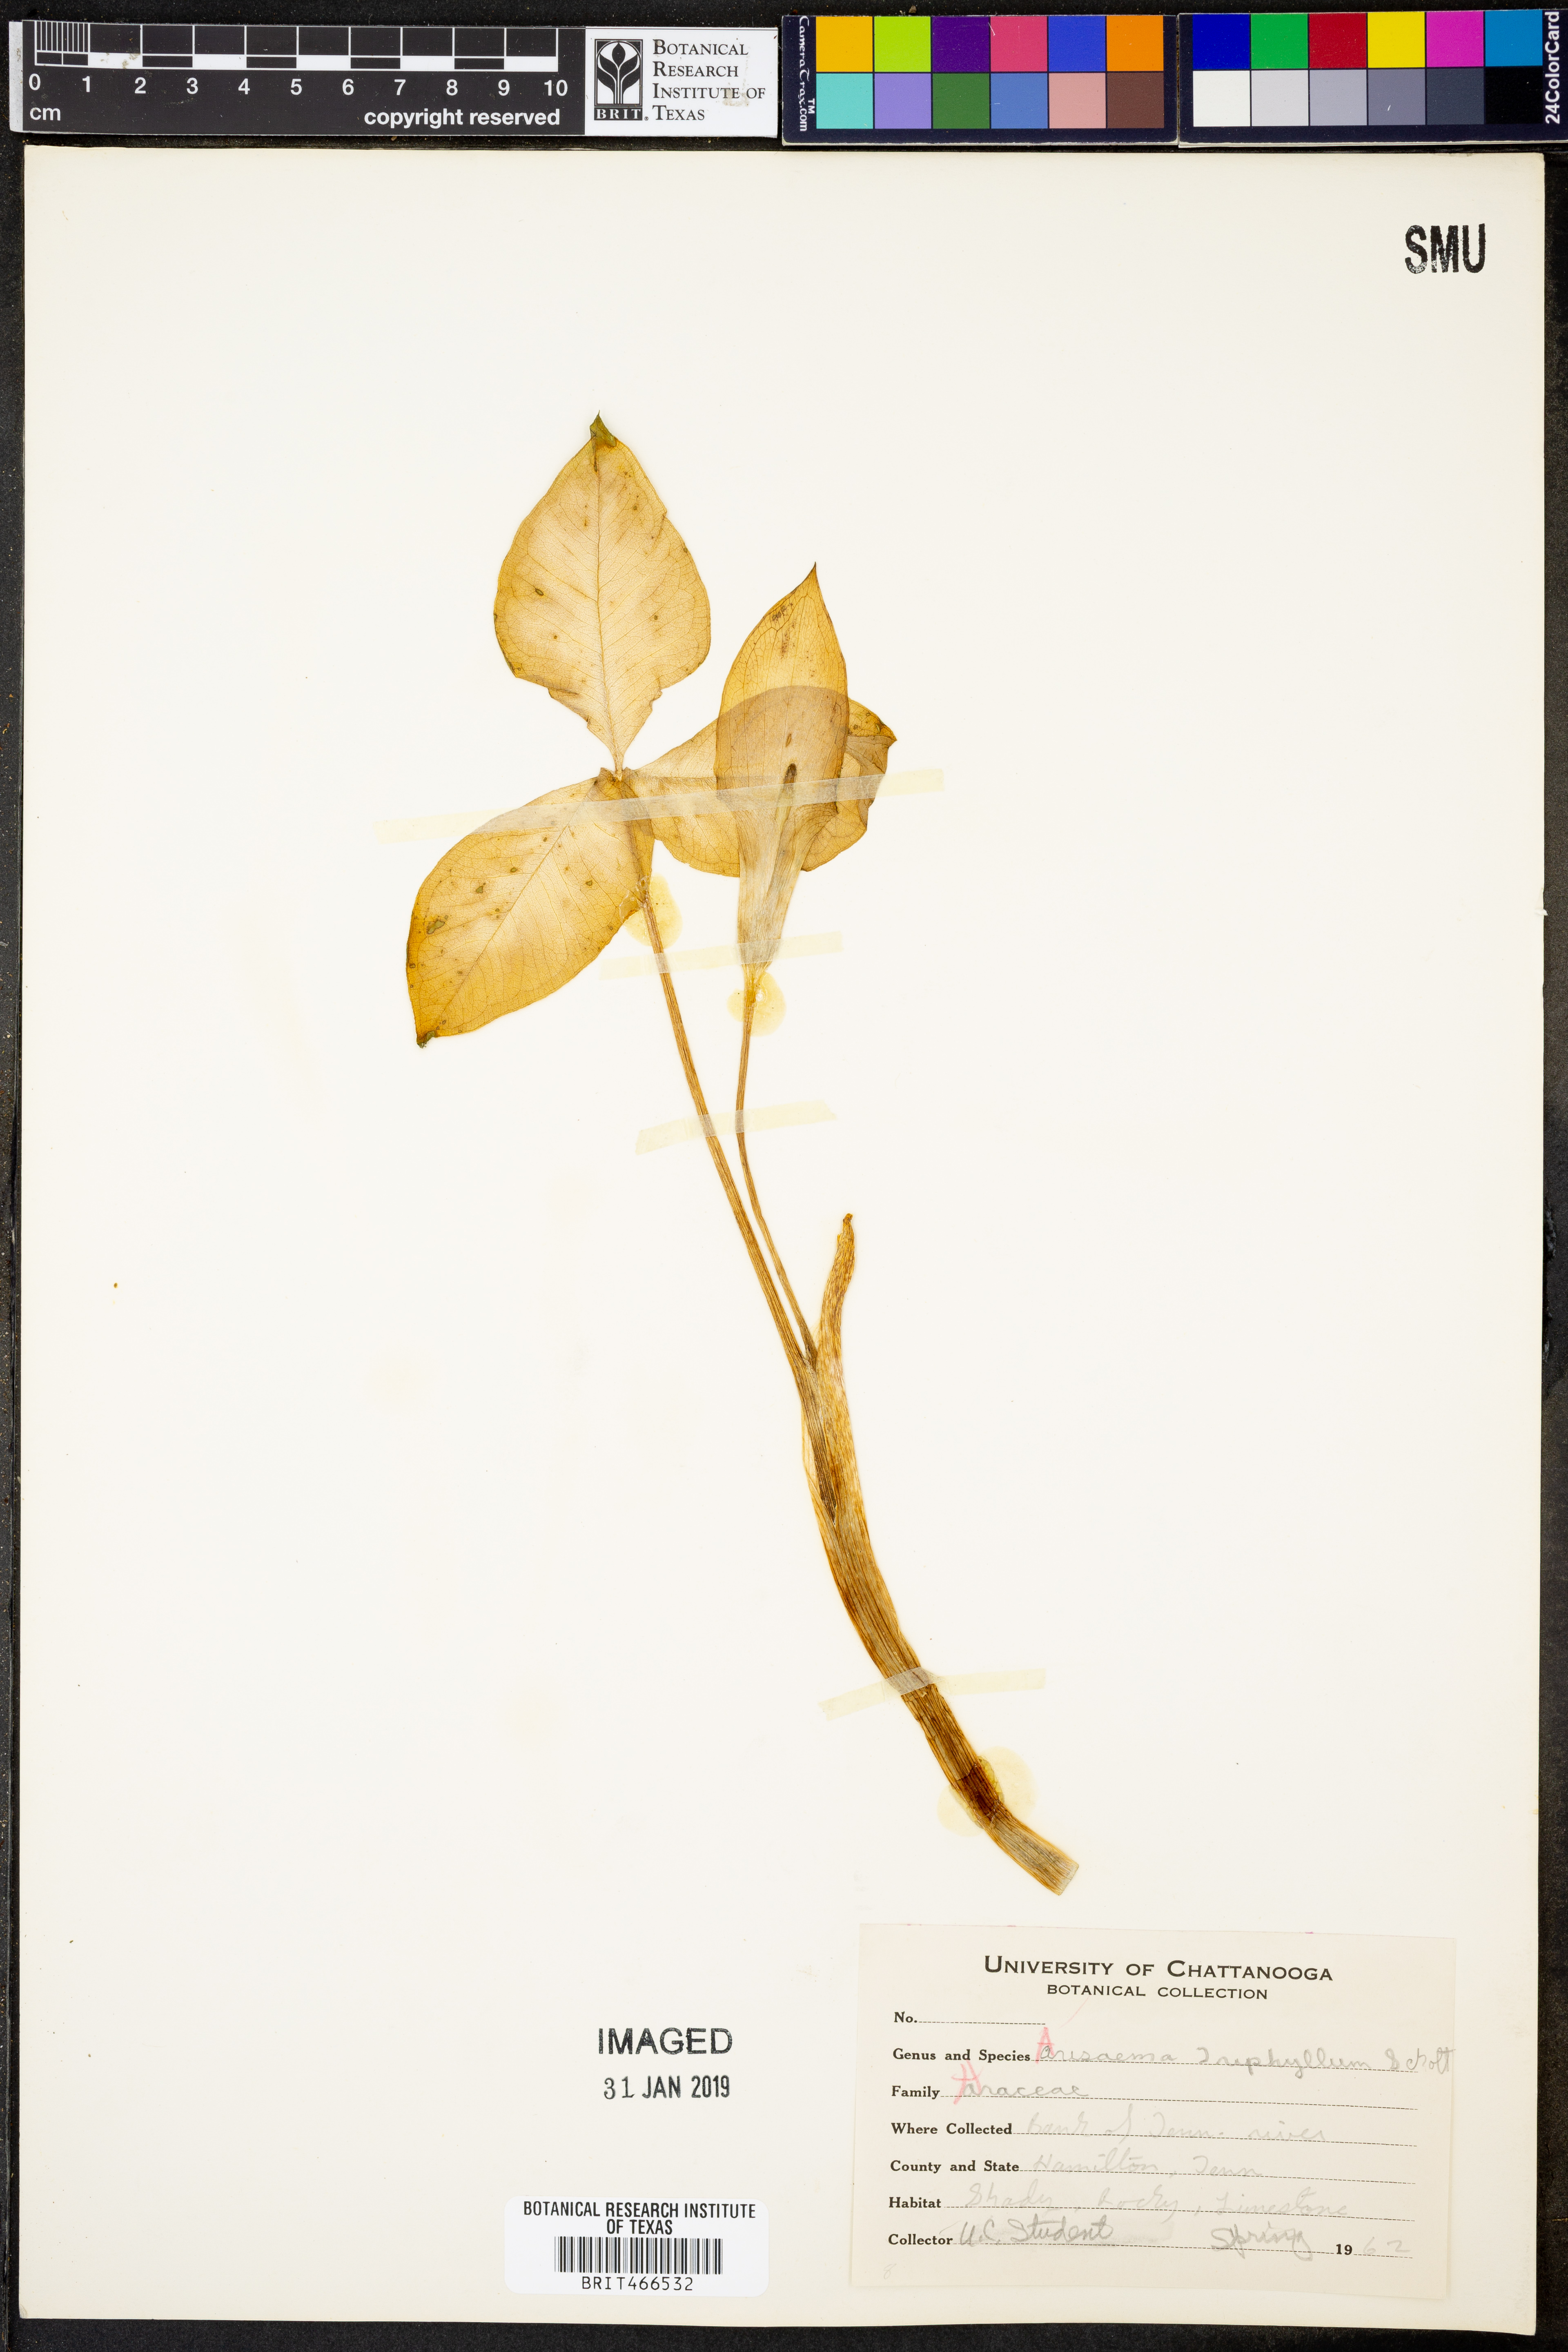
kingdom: Plantae
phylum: Tracheophyta
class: Liliopsida
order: Alismatales
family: Araceae
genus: Arisaema
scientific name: Arisaema triphyllum
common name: Jack-in-the-pulpit
